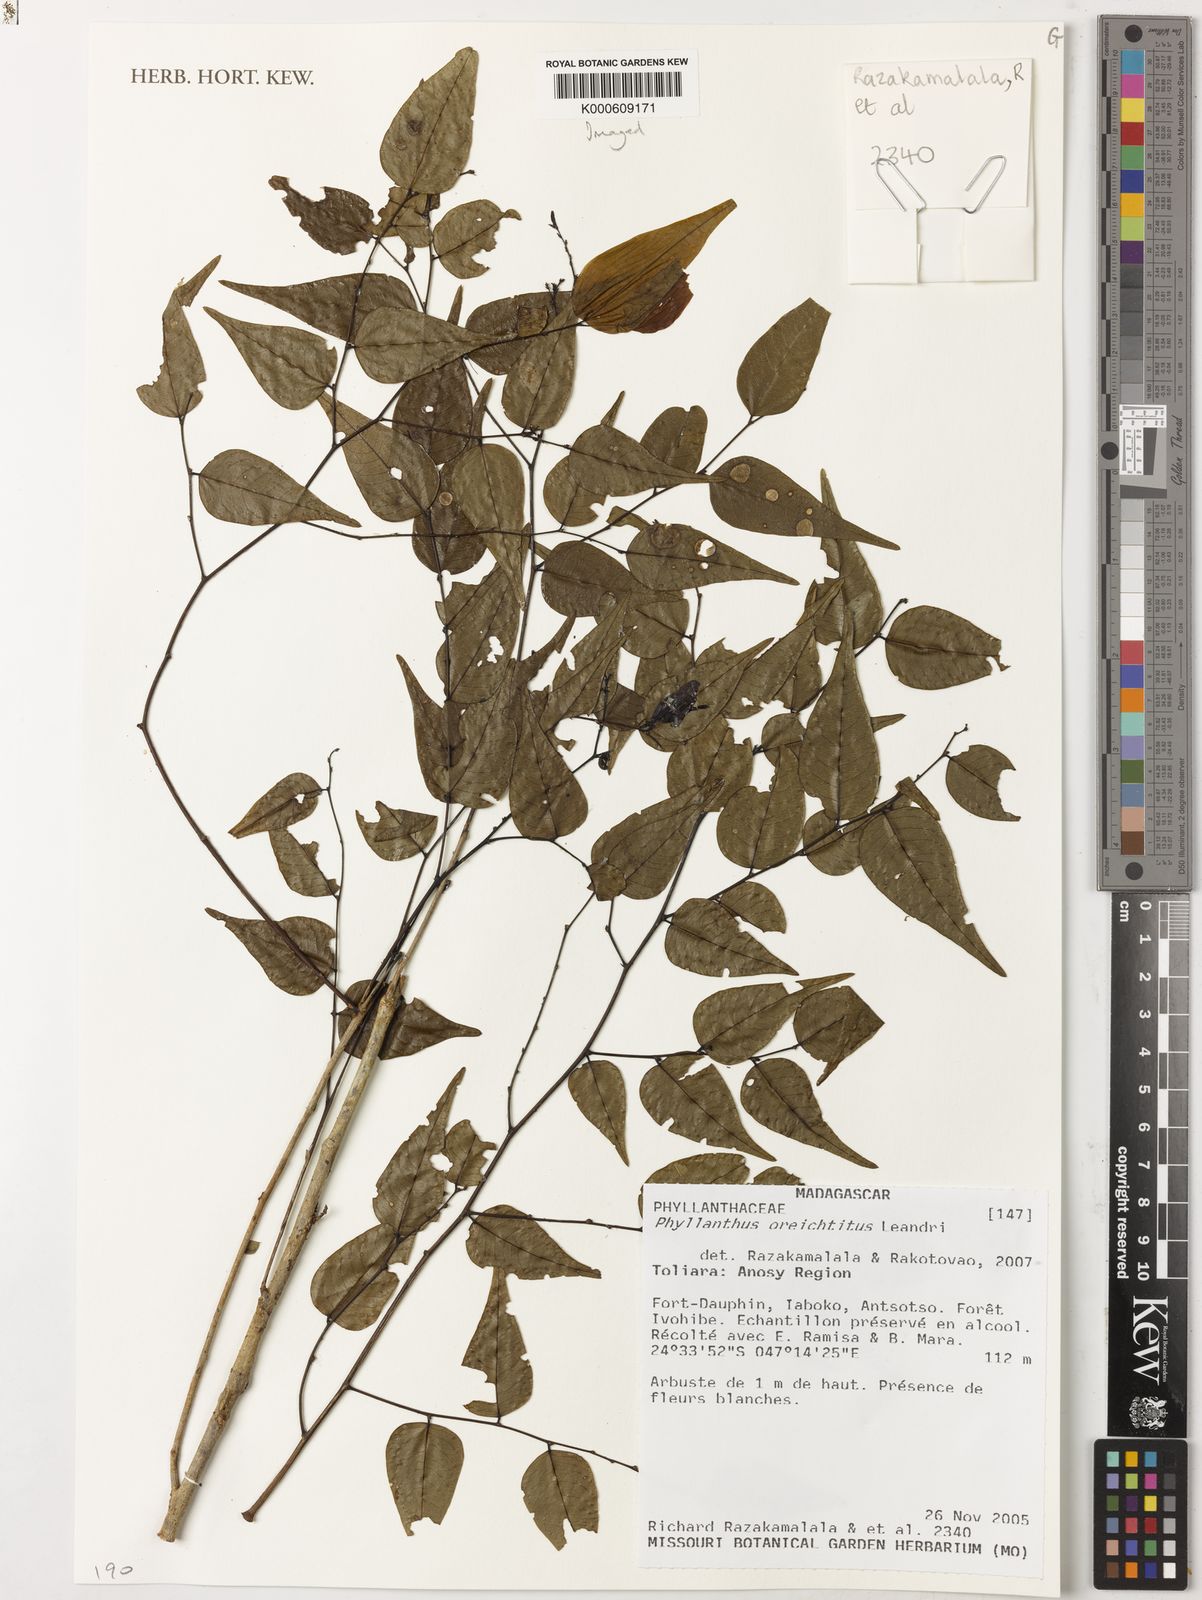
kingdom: Plantae
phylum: Tracheophyta
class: Magnoliopsida
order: Malpighiales
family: Phyllanthaceae
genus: Phyllanthus
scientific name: Phyllanthus oreichtitus
